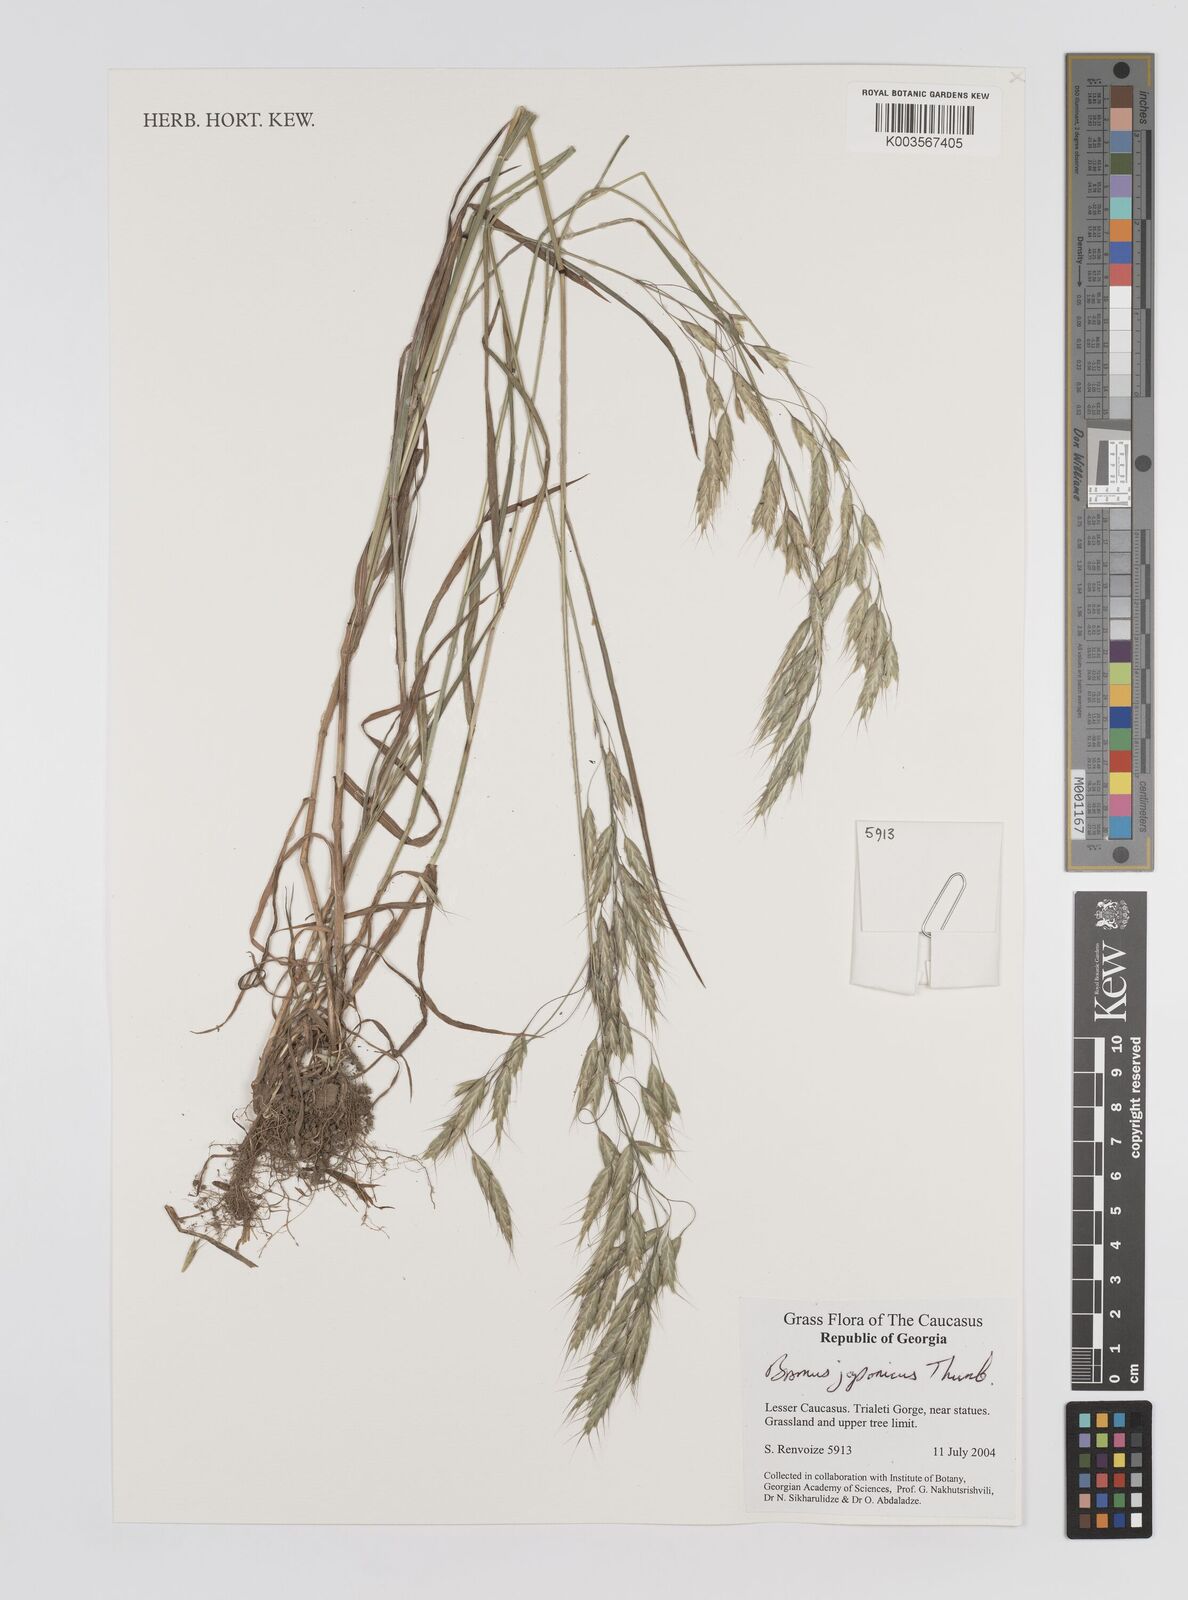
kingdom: Plantae
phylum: Tracheophyta
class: Liliopsida
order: Poales
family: Poaceae
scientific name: Poaceae
